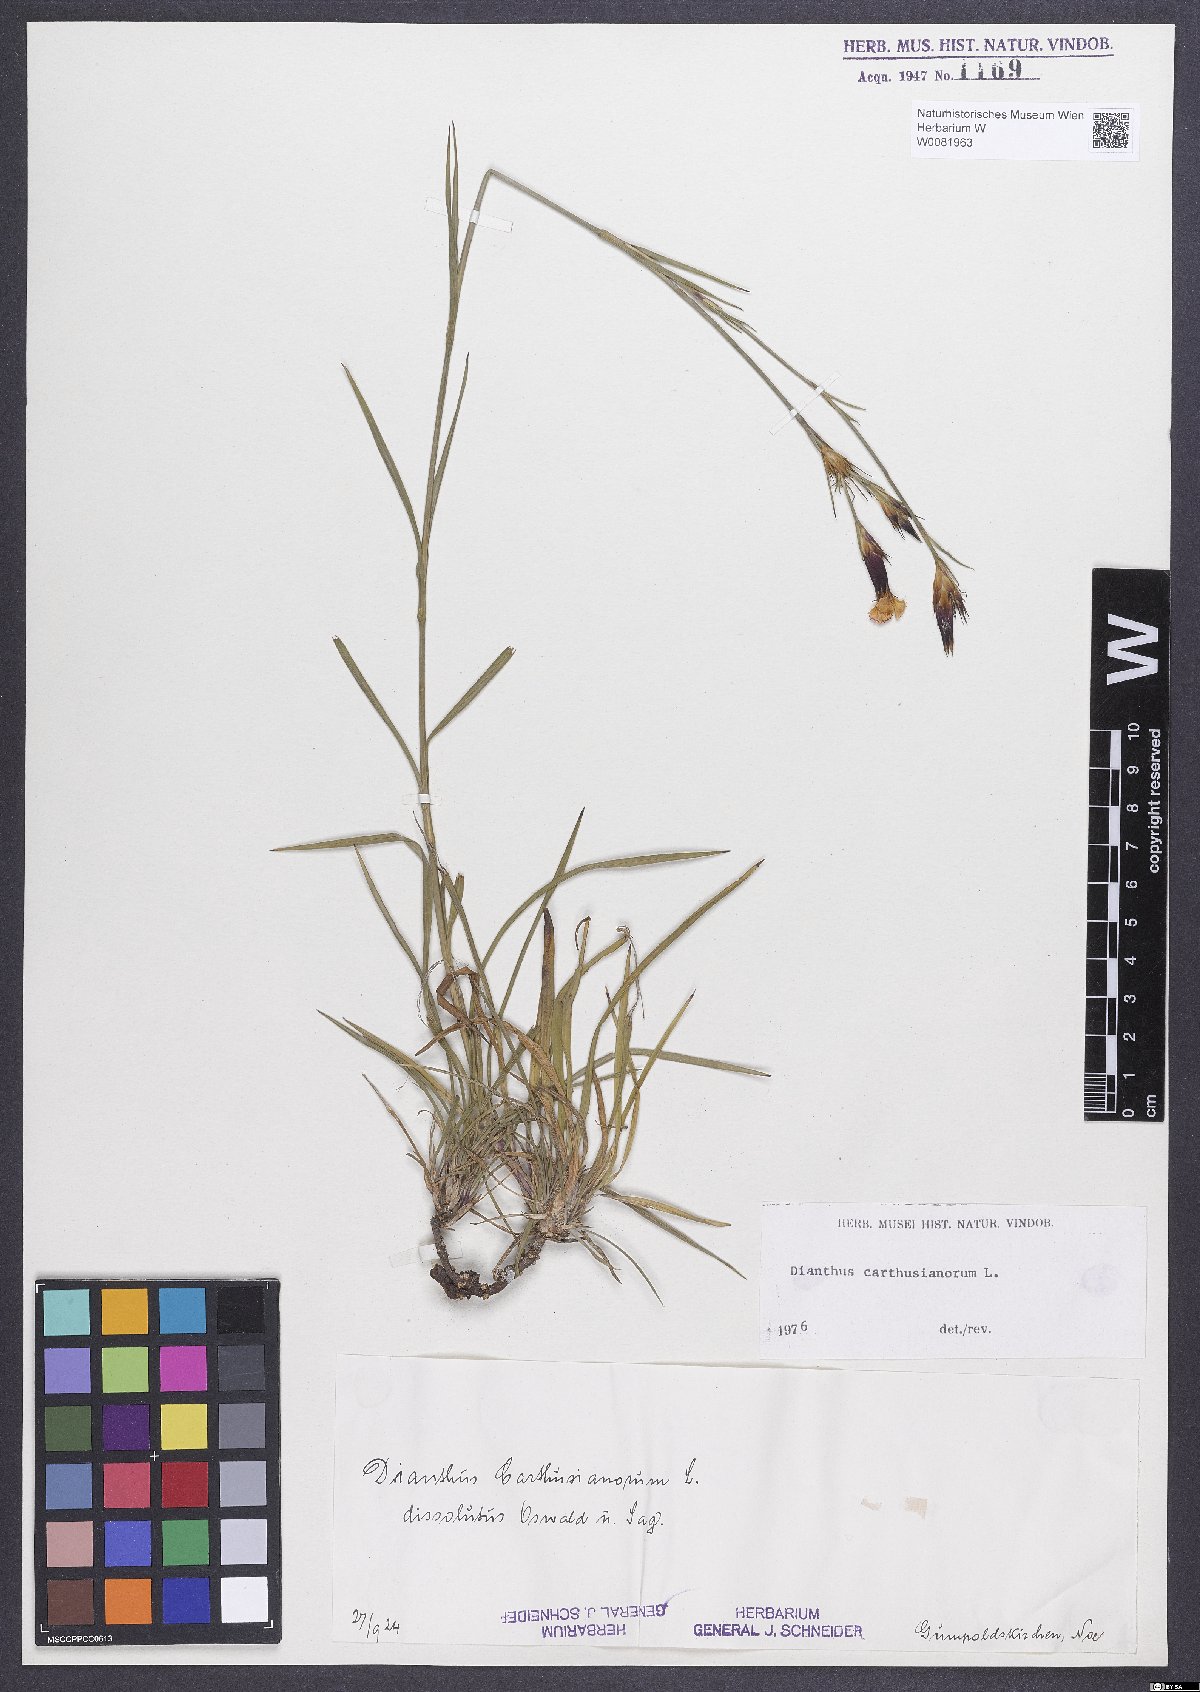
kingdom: Plantae
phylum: Tracheophyta
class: Magnoliopsida
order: Caryophyllales
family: Caryophyllaceae
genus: Dianthus
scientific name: Dianthus carthusianorum
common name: Carthusian pink
